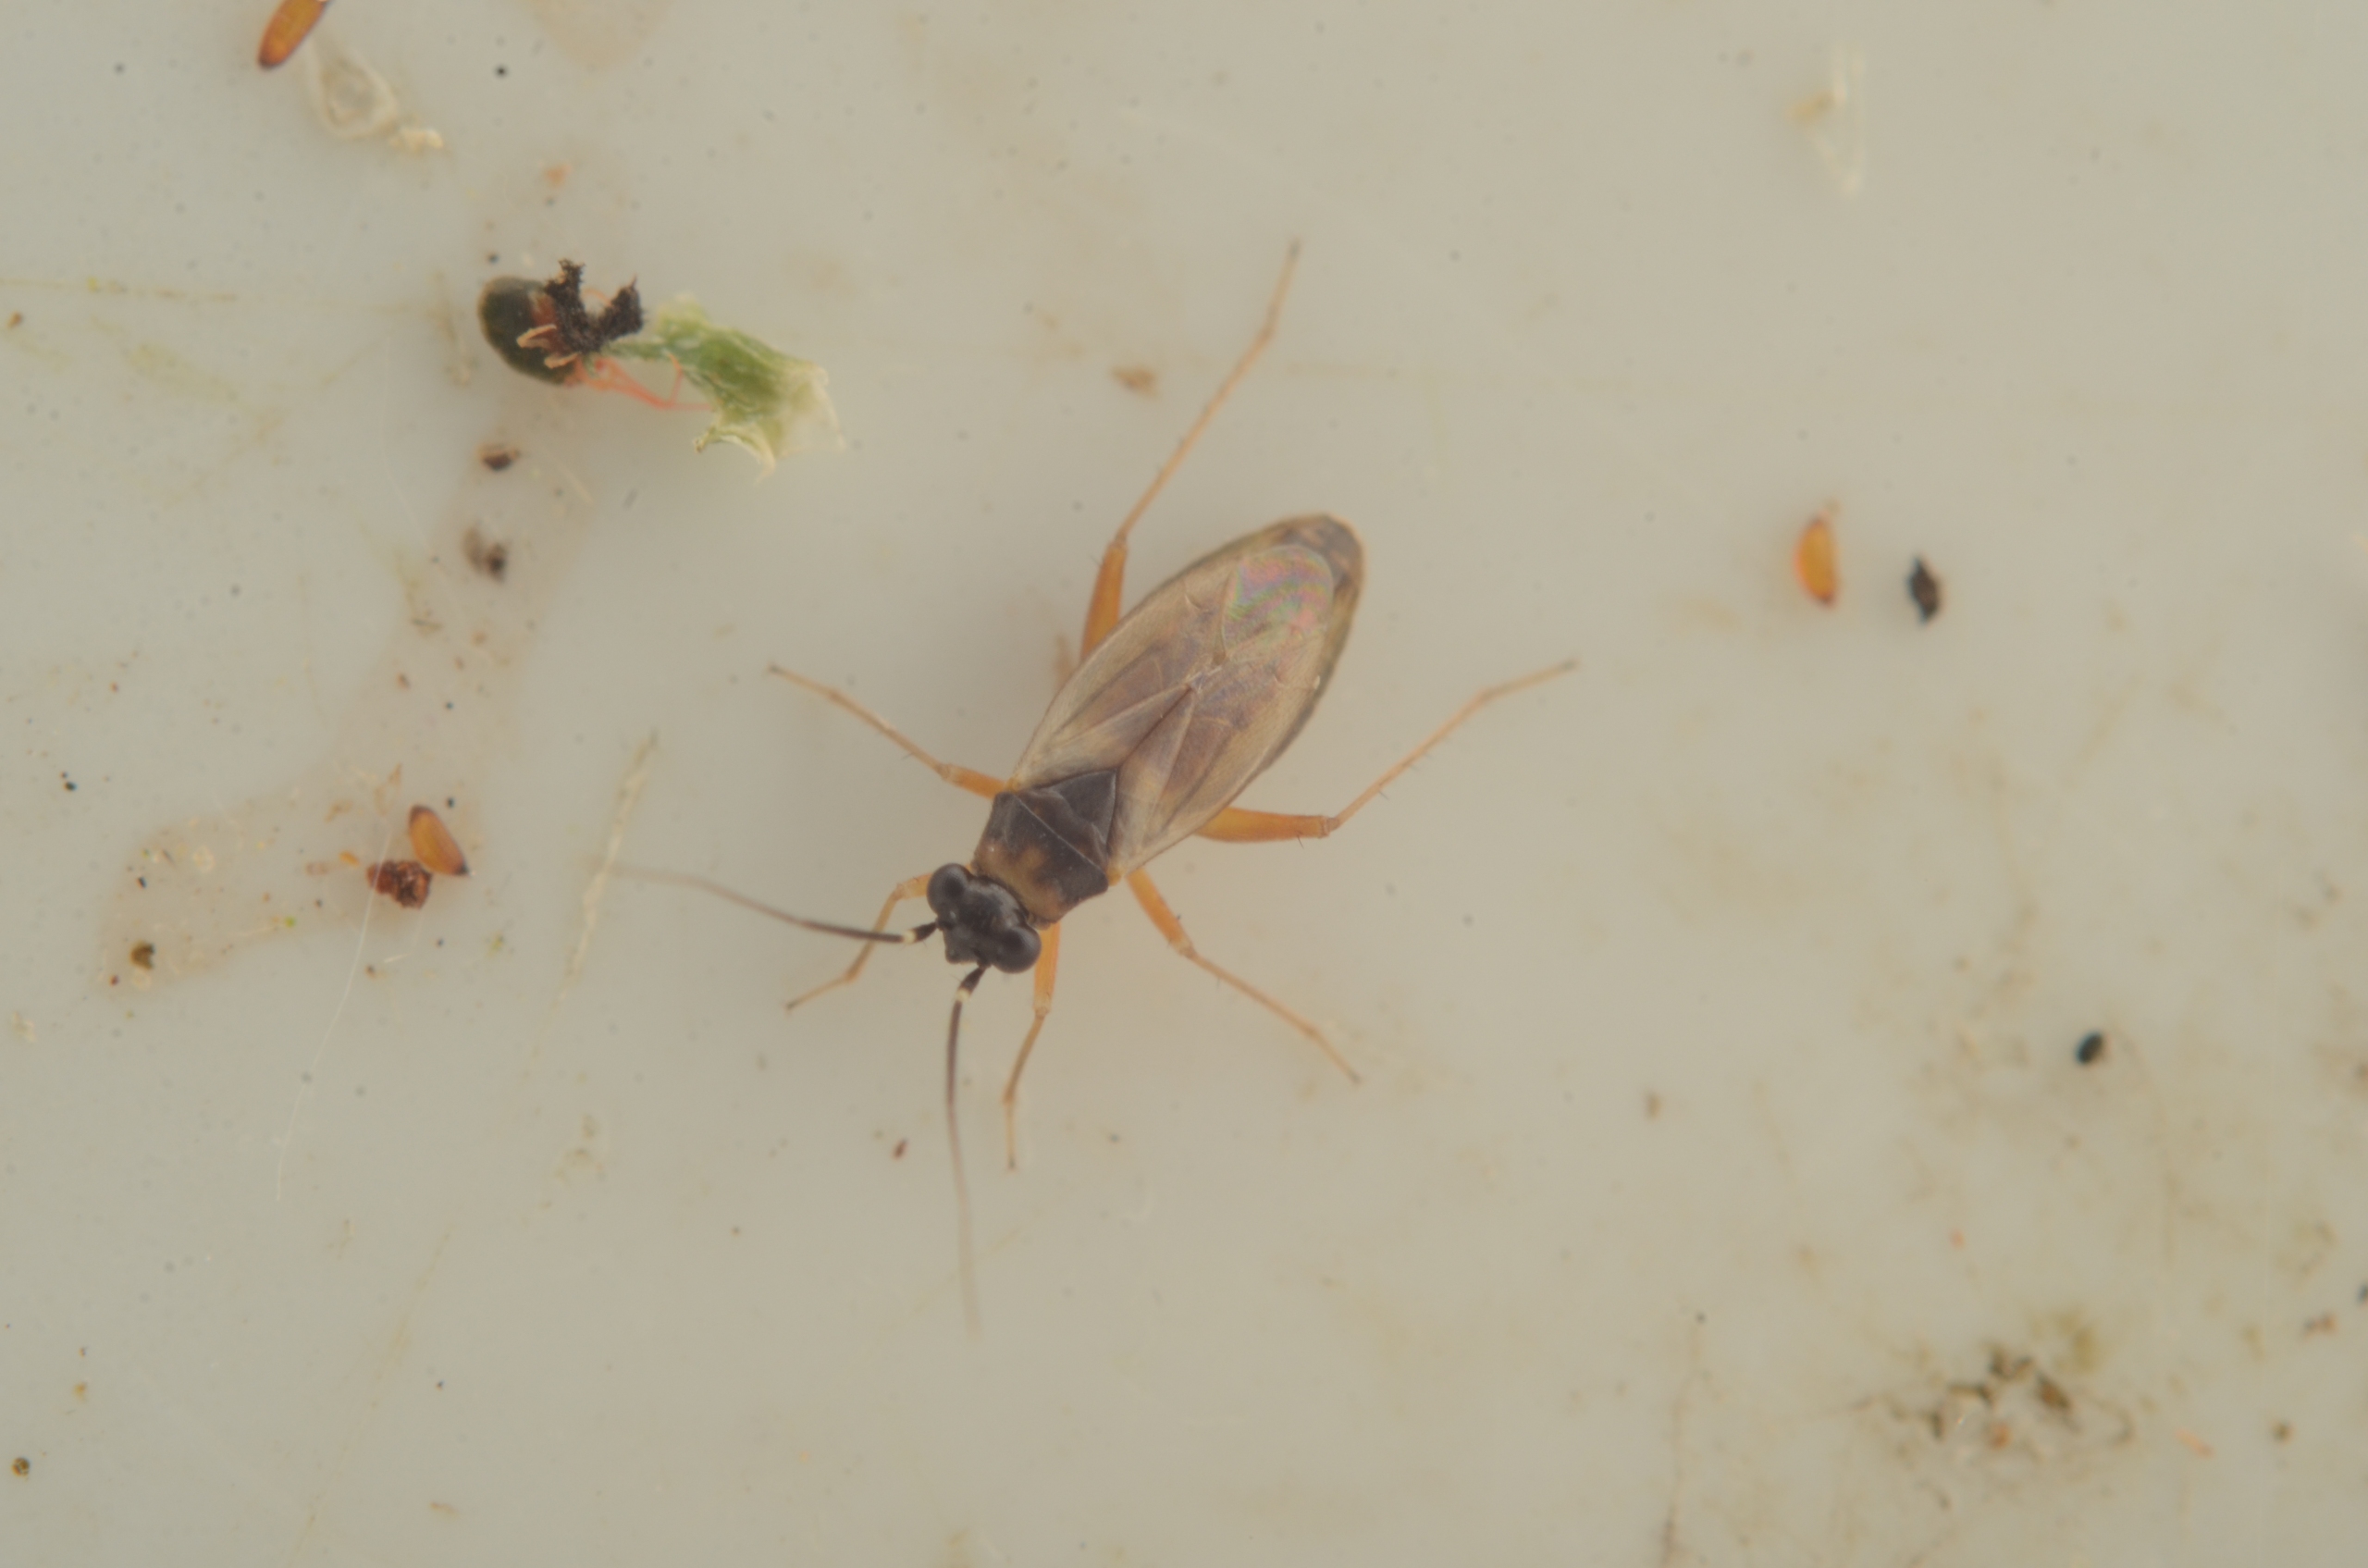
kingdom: Animalia
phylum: Arthropoda
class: Insecta
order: Hemiptera
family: Miridae
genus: Tytthus
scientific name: Tytthus pygmaeus
